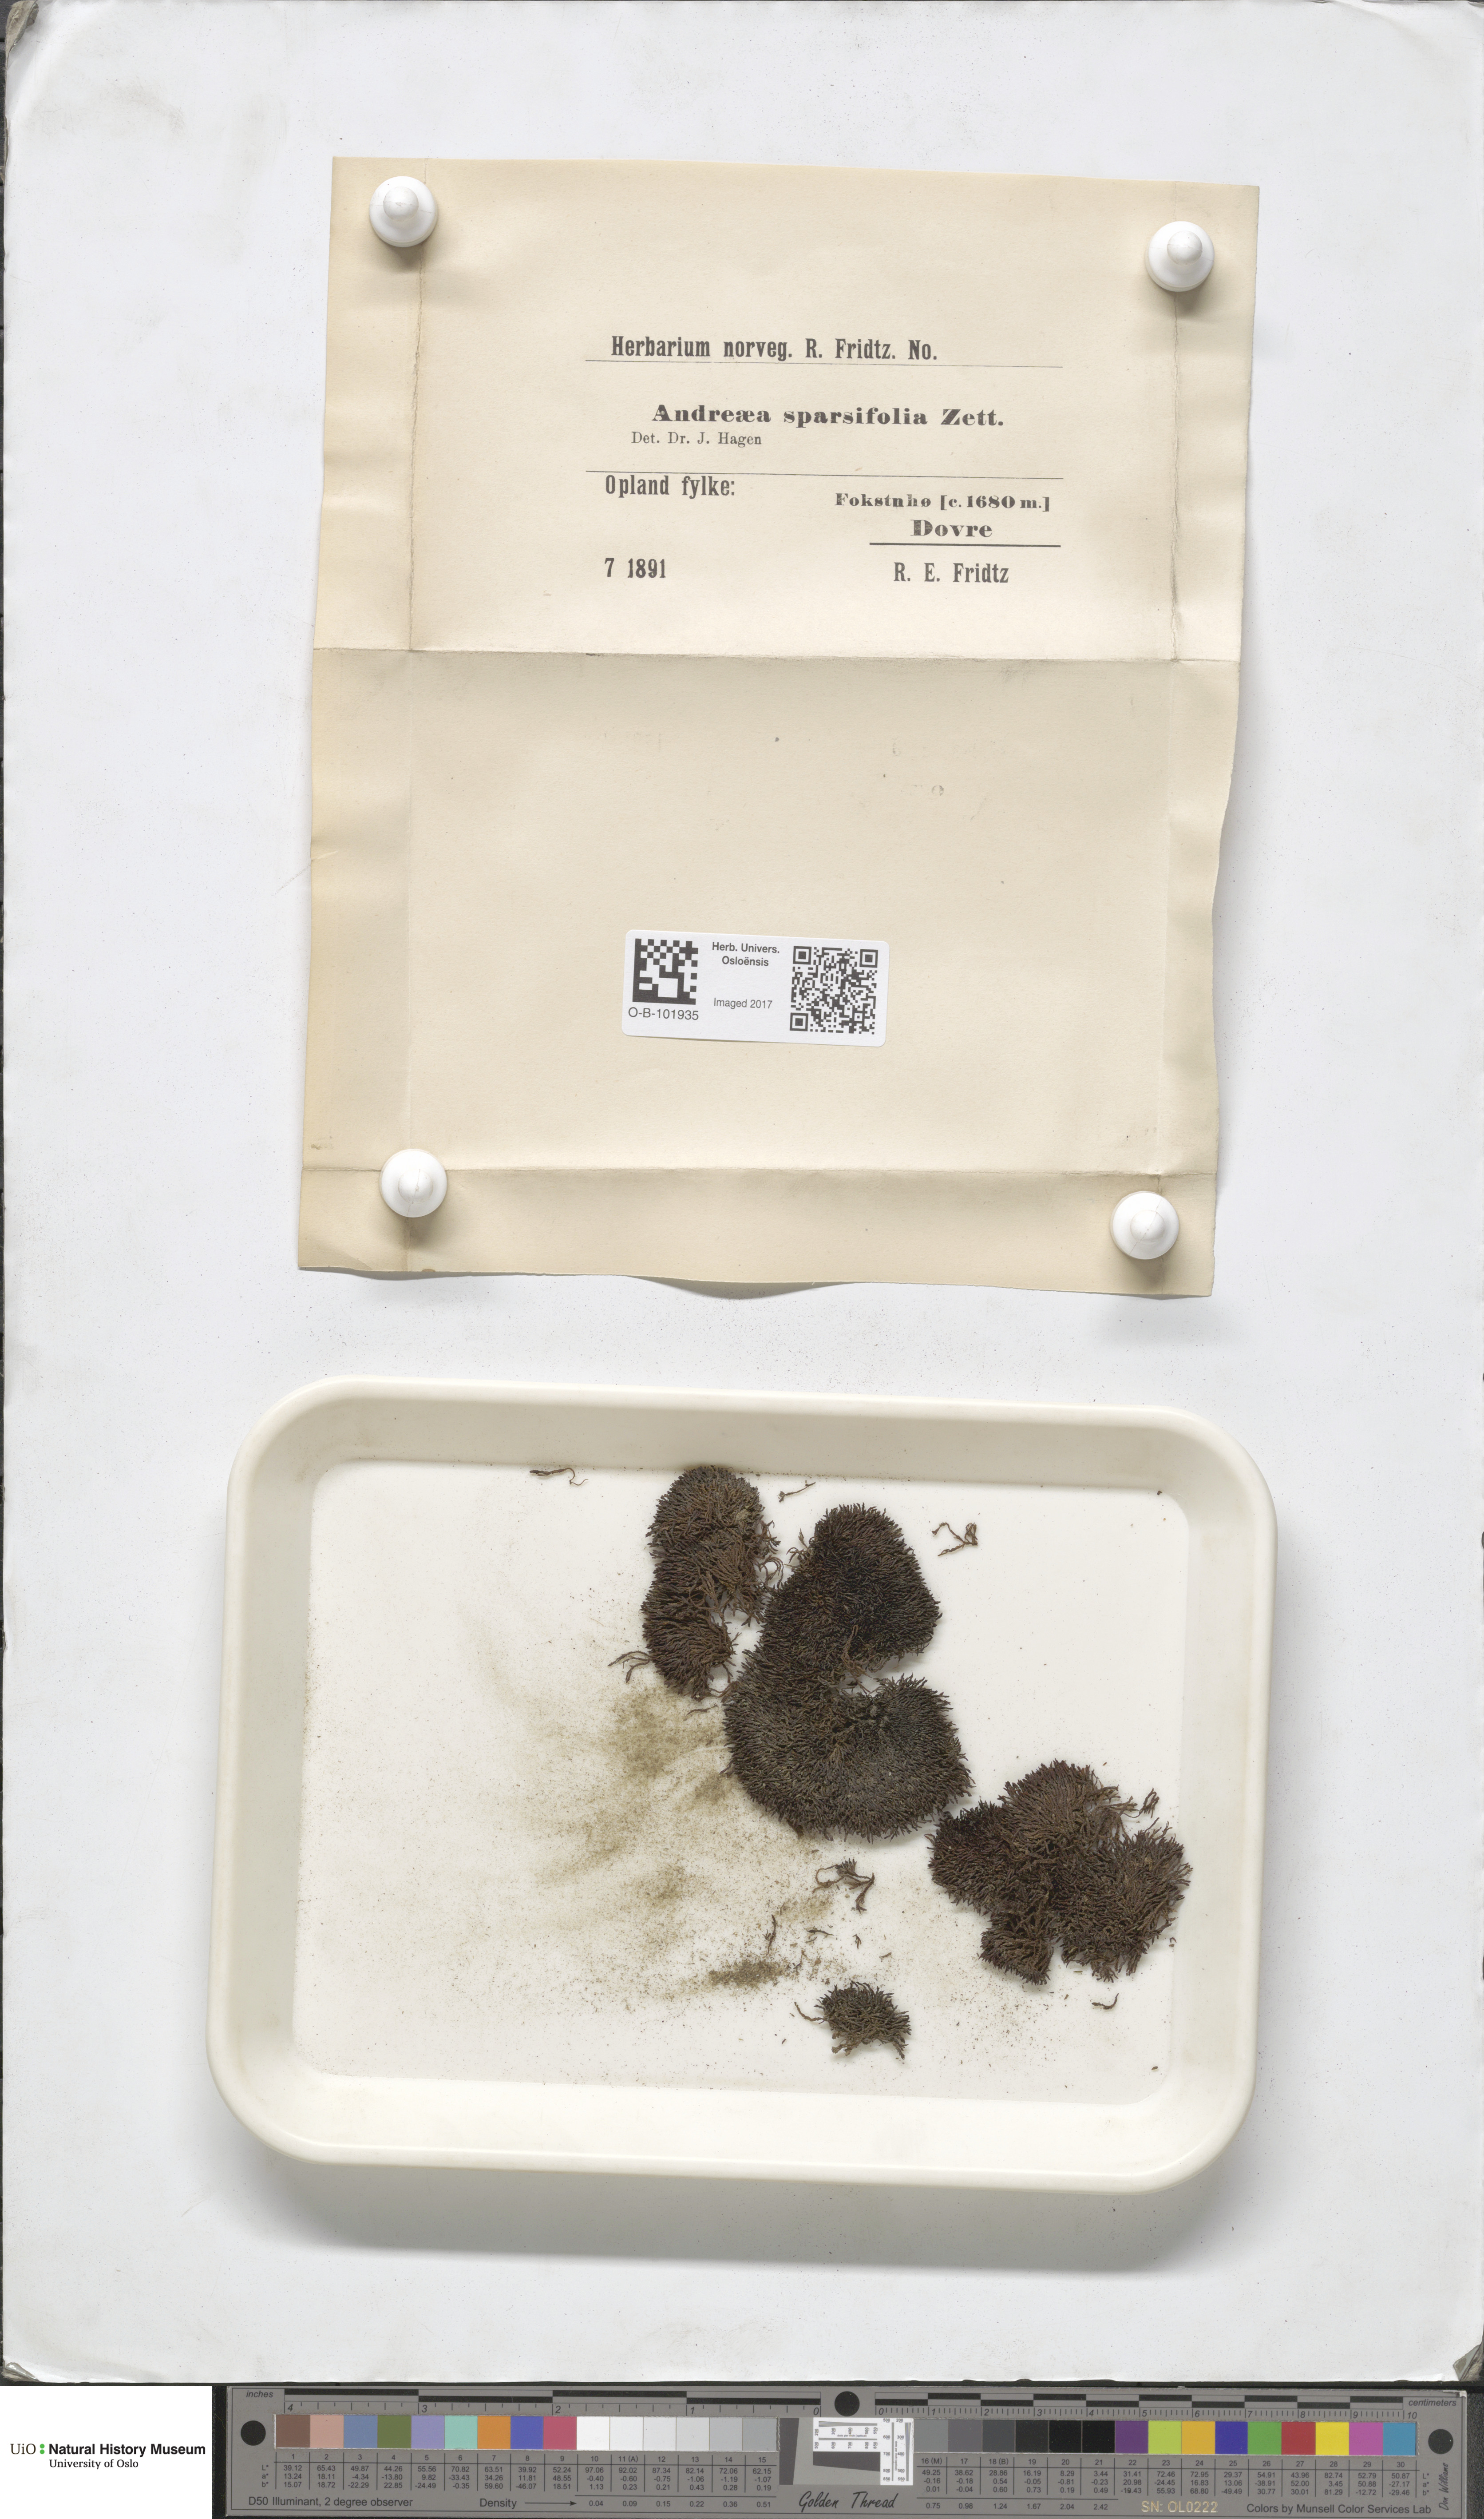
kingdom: Plantae
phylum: Bryophyta
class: Andreaeopsida
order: Andreaeales
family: Andreaeaceae
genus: Andreaea
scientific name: Andreaea rupestris
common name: Black rock moss
